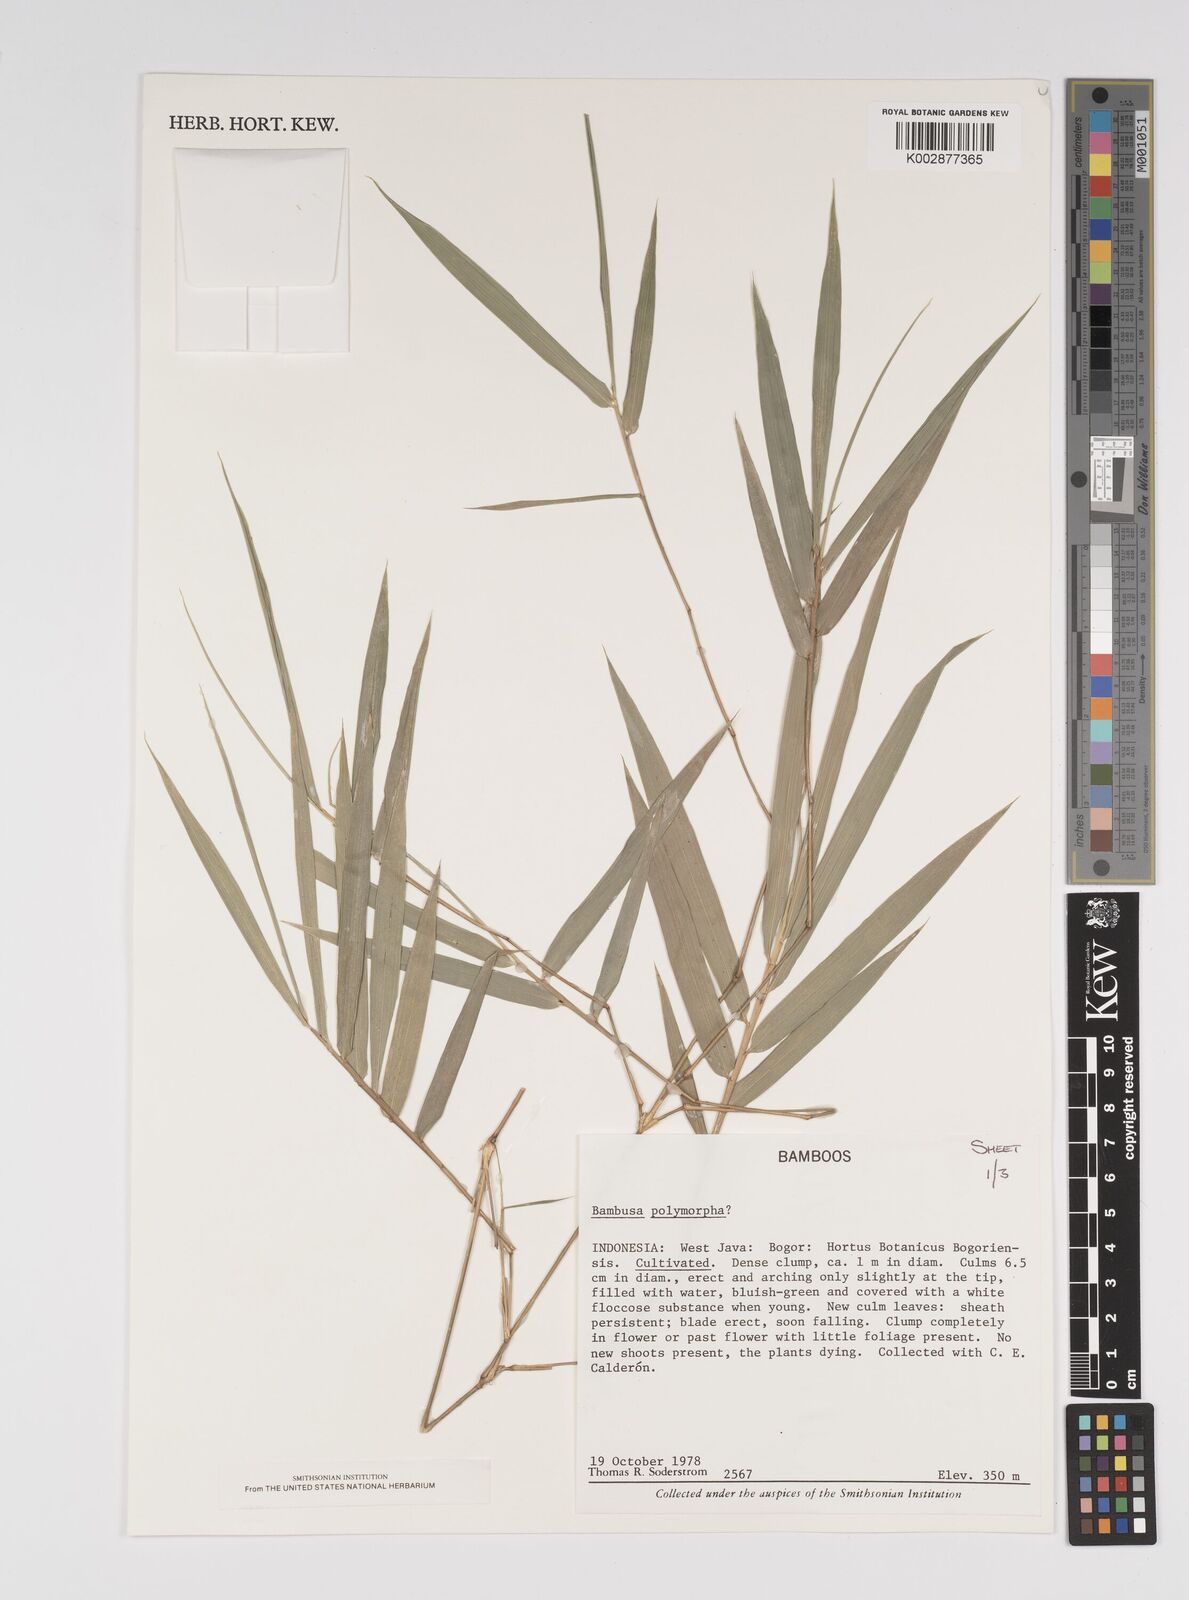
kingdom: Plantae
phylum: Tracheophyta
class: Liliopsida
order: Poales
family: Poaceae
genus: Bambusa
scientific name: Bambusa
